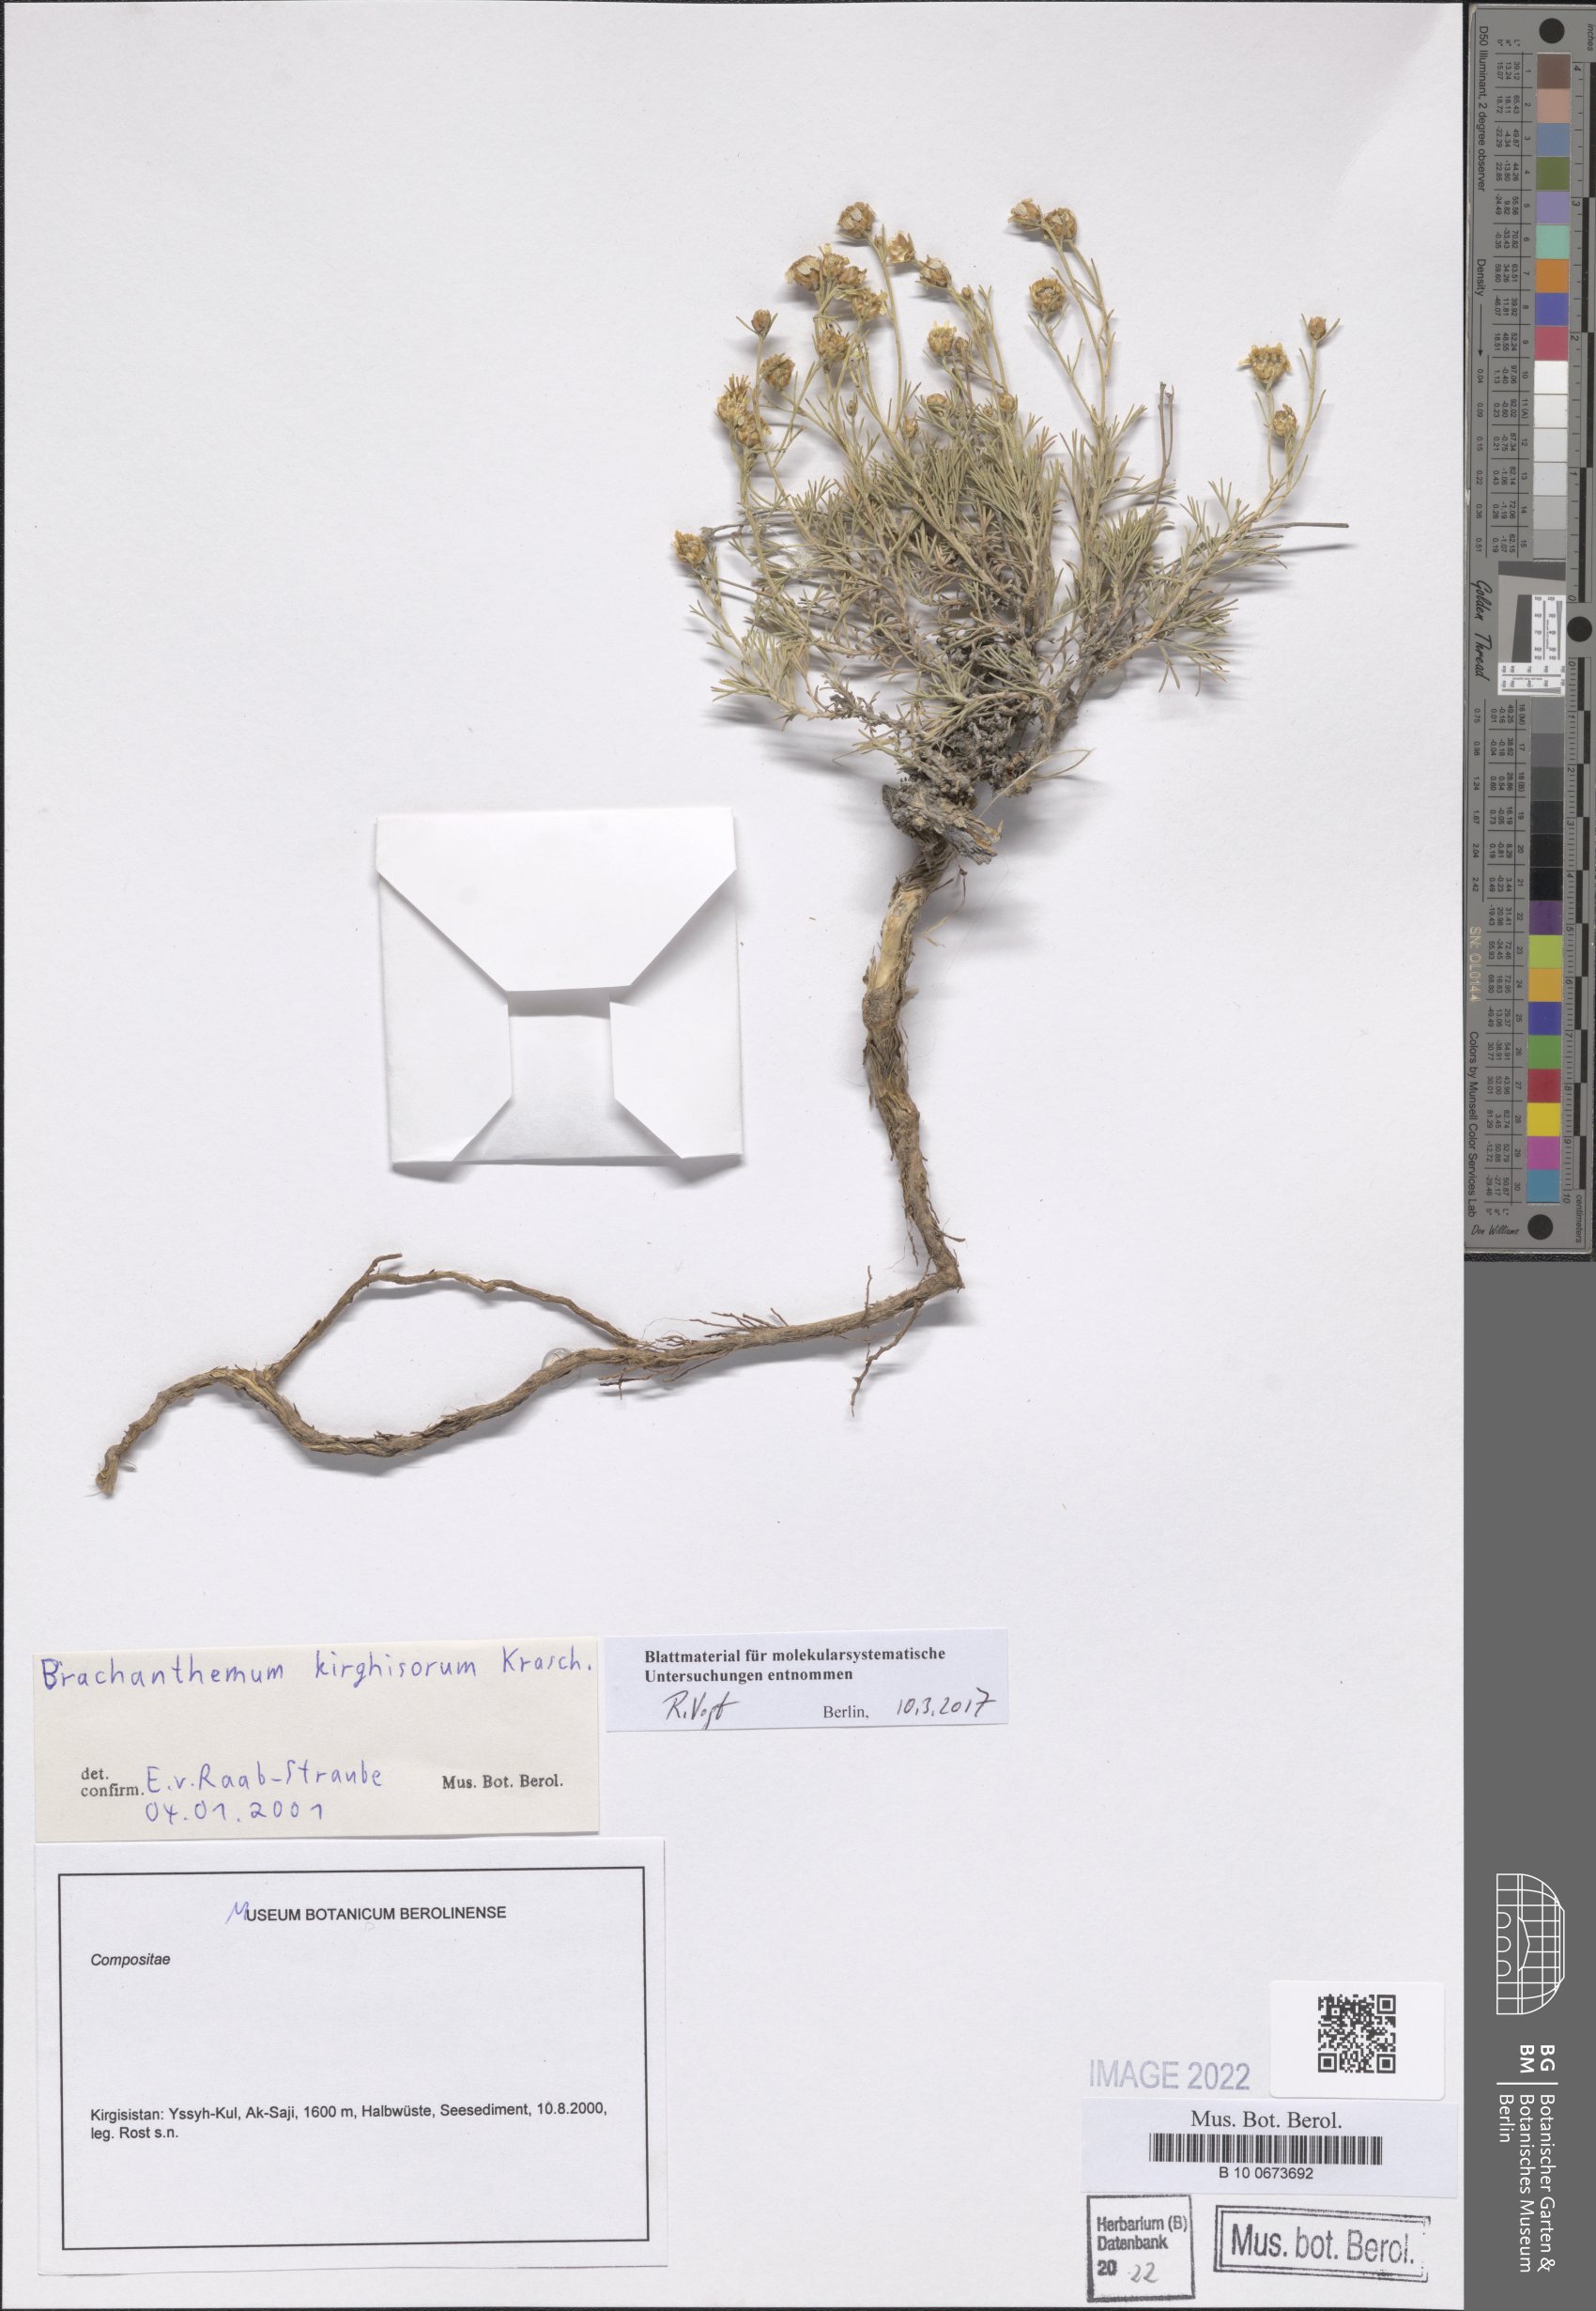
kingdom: Plantae
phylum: Tracheophyta
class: Magnoliopsida
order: Asterales
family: Asteraceae
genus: Brachanthemum
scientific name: Brachanthemum kirghisorum
